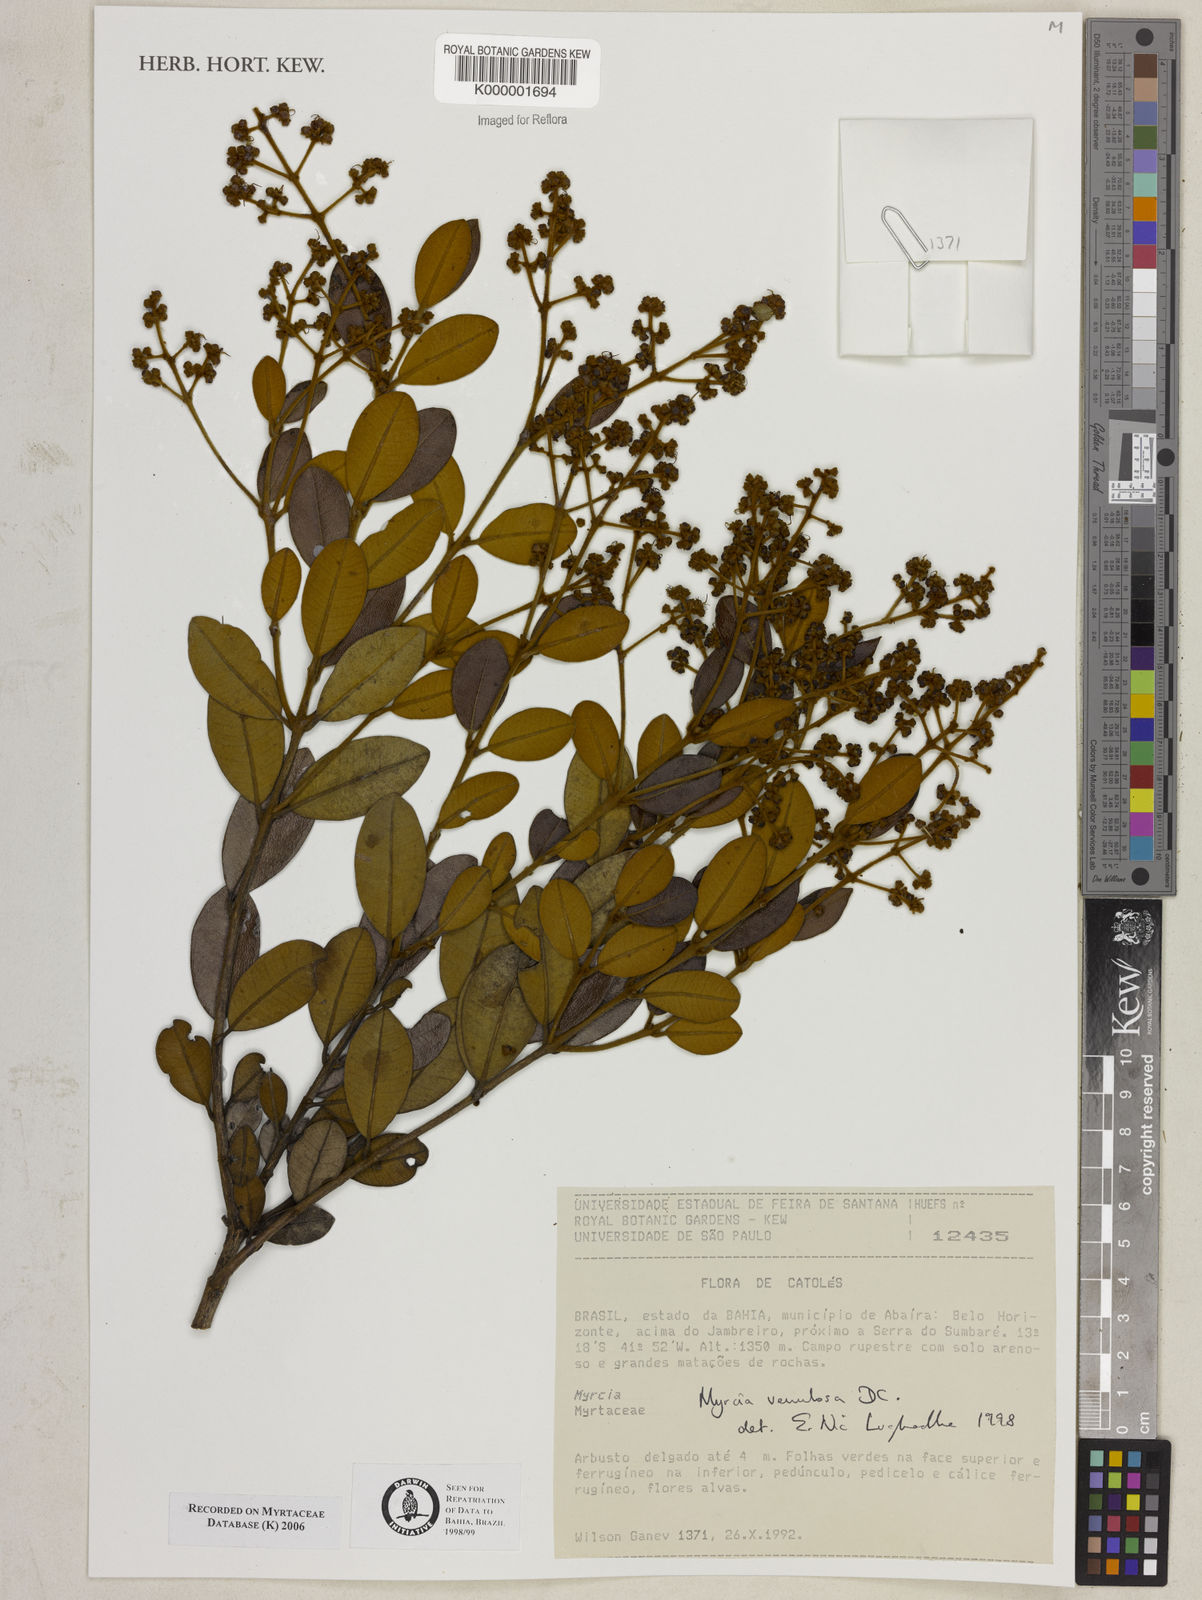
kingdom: Plantae
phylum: Tracheophyta
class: Magnoliopsida
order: Myrtales
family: Myrtaceae
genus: Myrcia
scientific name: Myrcia venulosa
